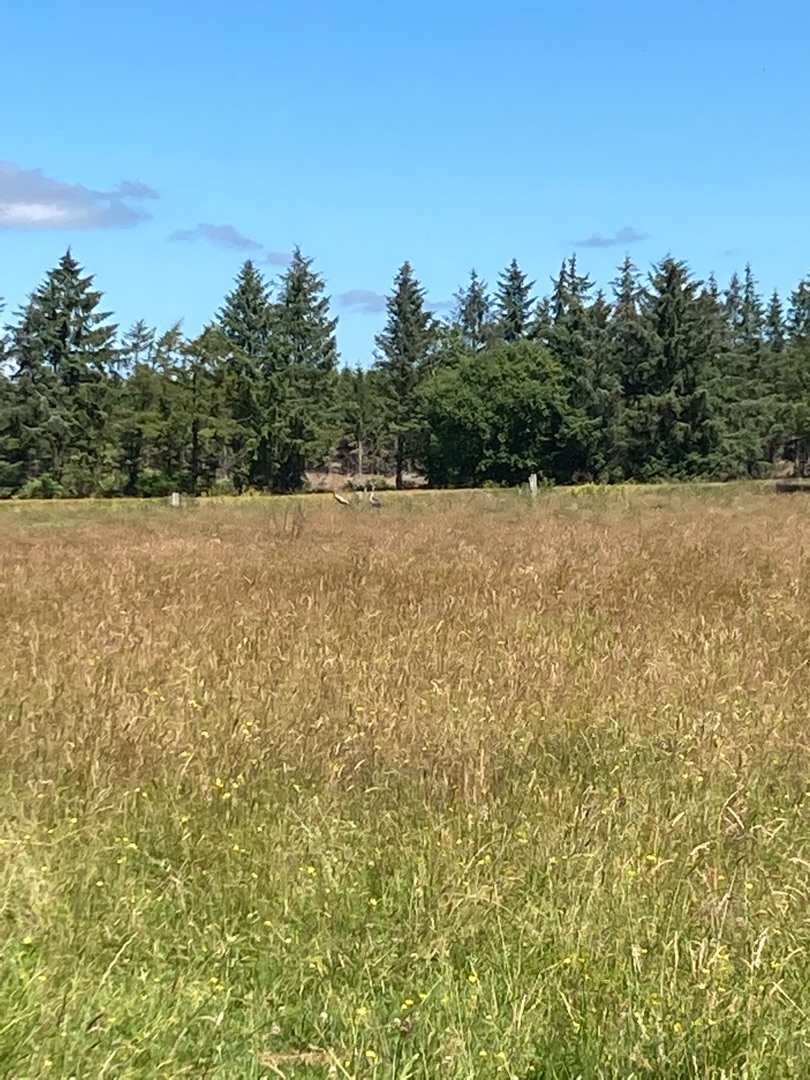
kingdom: Animalia
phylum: Chordata
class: Aves
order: Gruiformes
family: Gruidae
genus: Grus
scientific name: Grus grus
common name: Trane
